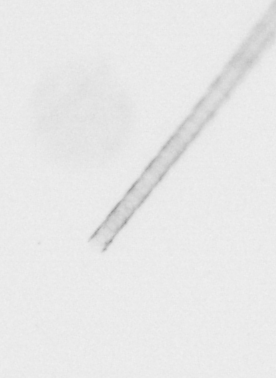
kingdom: Chromista
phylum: Ochrophyta
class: Bacillariophyceae
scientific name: Bacillariophyceae
